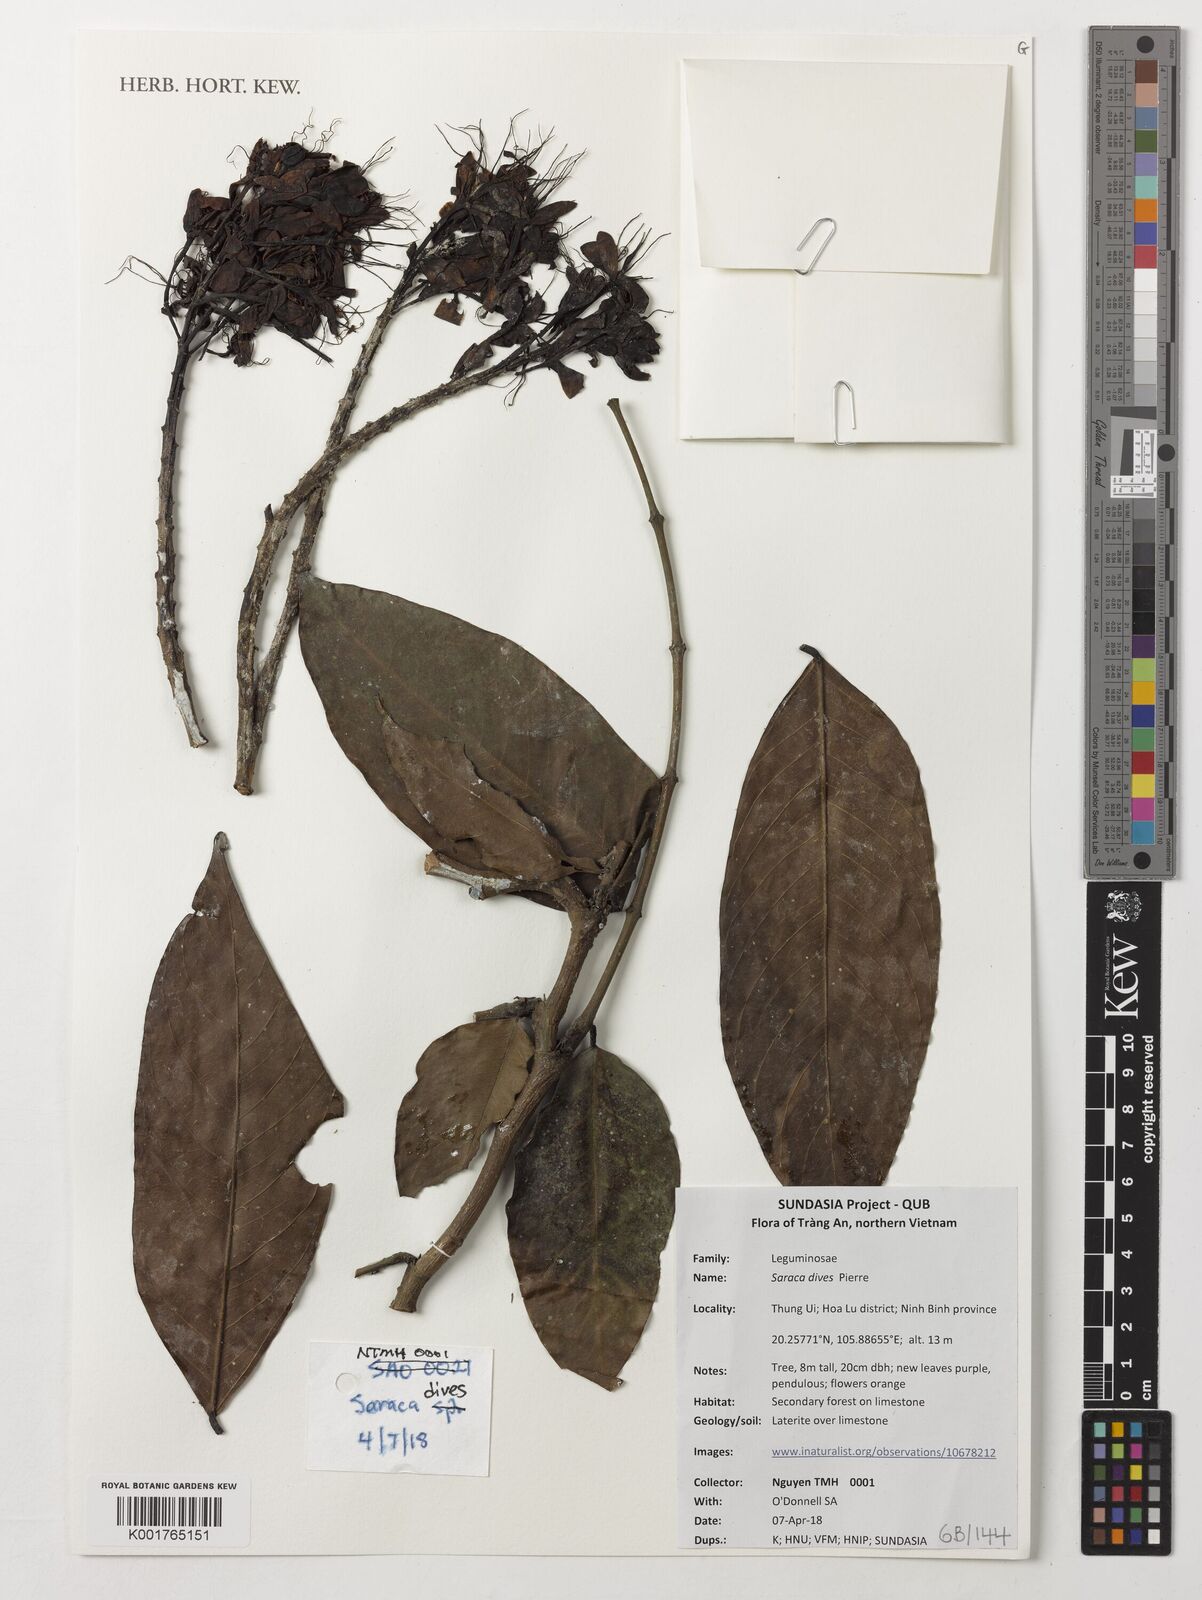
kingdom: Plantae
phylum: Tracheophyta
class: Magnoliopsida
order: Fabales
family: Fabaceae
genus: Saraca
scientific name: Saraca dives
